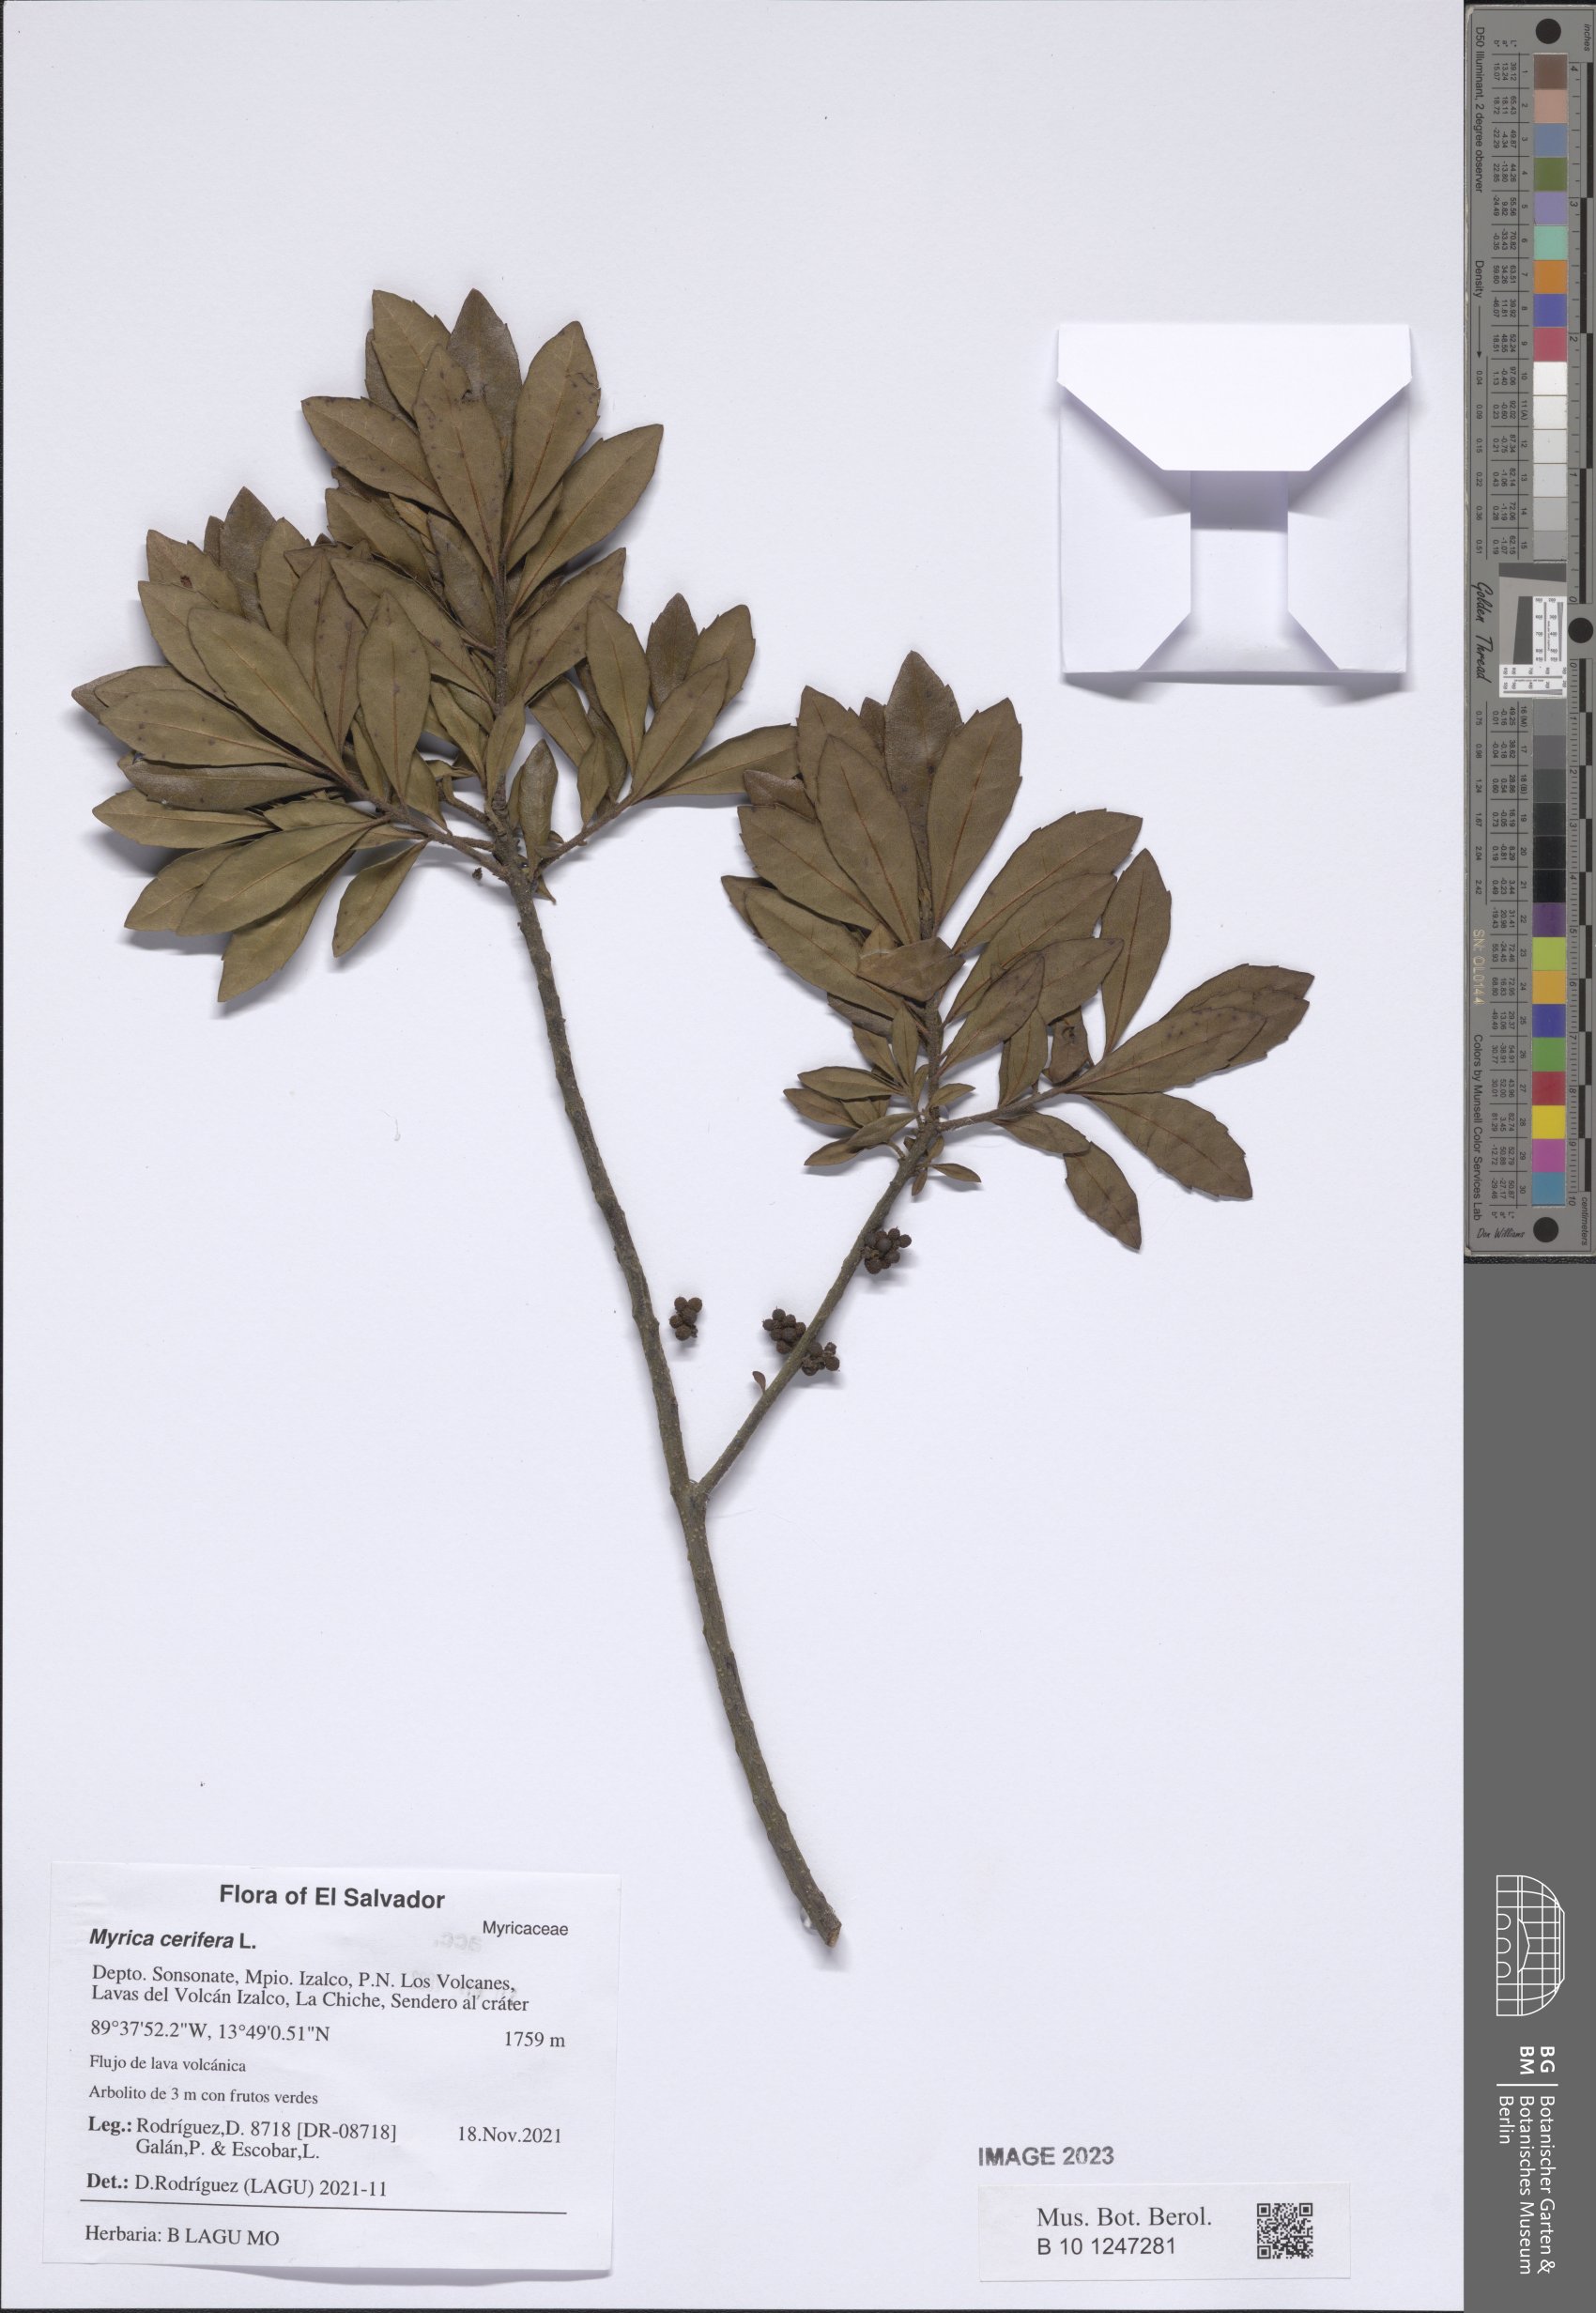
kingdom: Plantae
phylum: Tracheophyta
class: Magnoliopsida
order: Fagales
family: Myricaceae
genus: Morella
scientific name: Morella cerifera
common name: Wax myrtle
